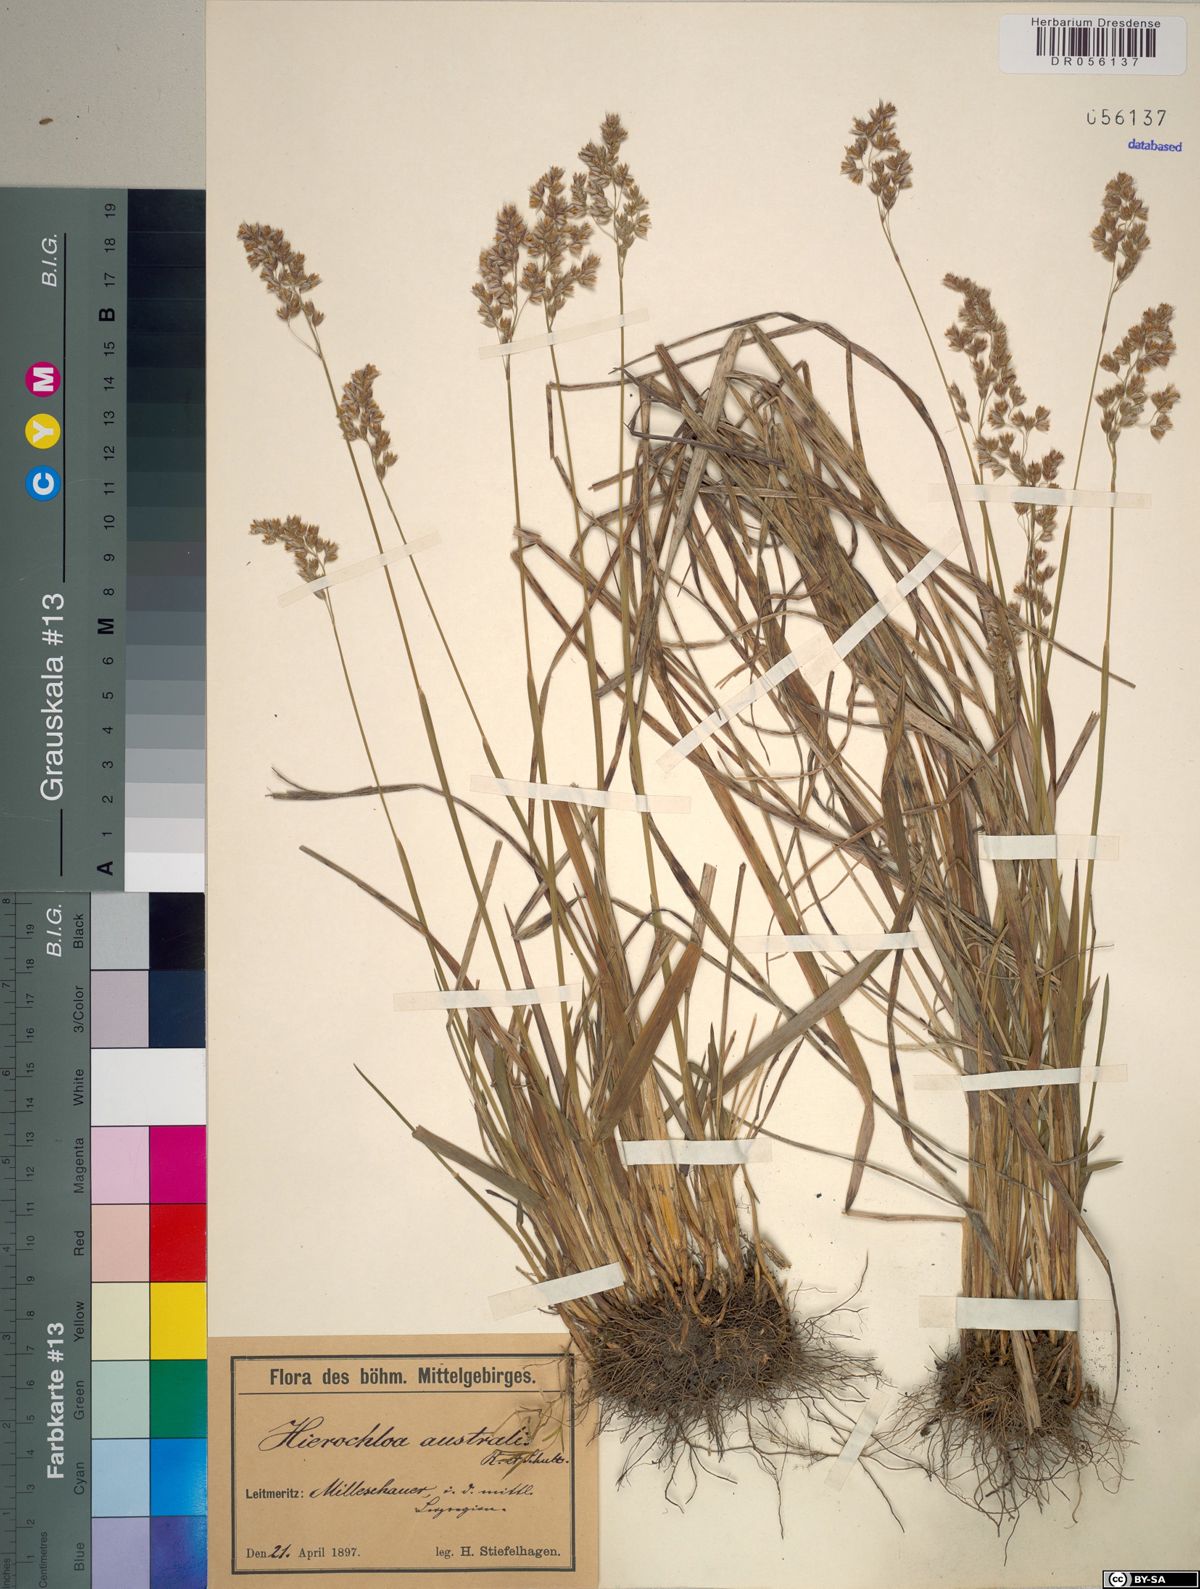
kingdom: Plantae
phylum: Tracheophyta
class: Liliopsida
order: Poales
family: Poaceae
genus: Anthoxanthum
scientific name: Anthoxanthum australe
